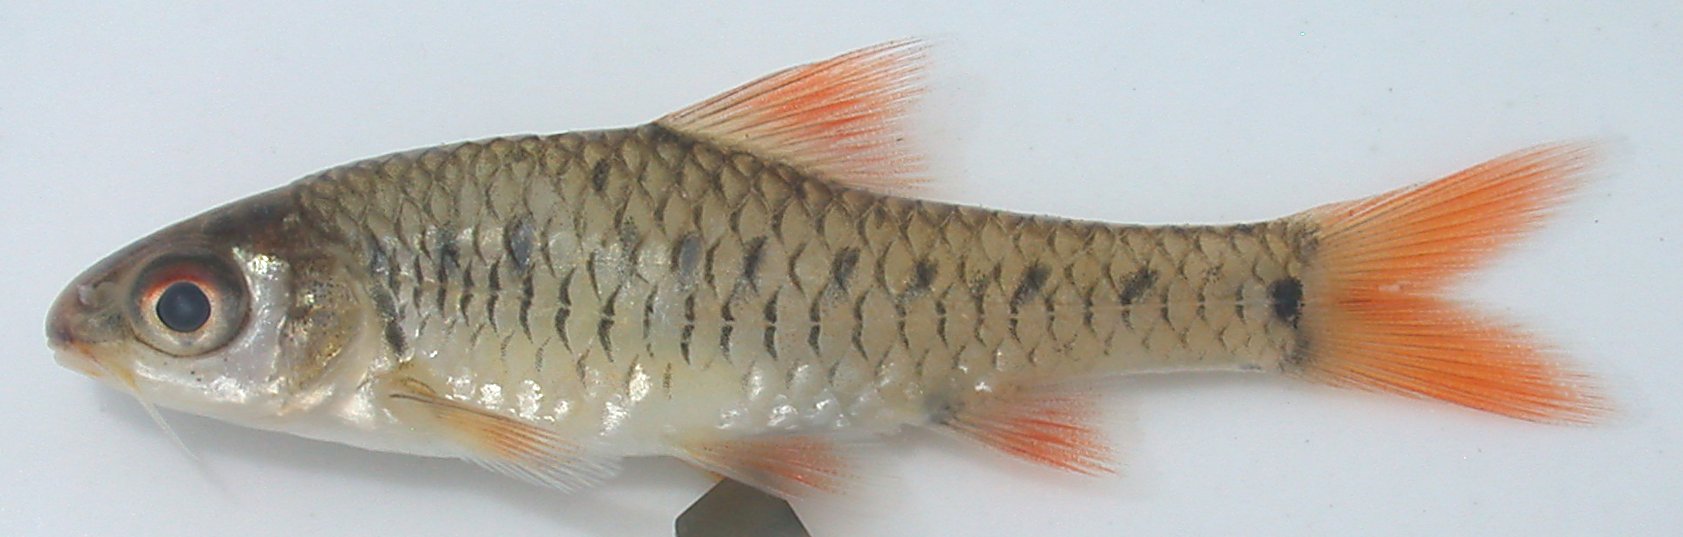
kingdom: Animalia
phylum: Chordata
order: Cypriniformes
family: Cyprinidae
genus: Clypeobarbus
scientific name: Clypeobarbus bellcrossi
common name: Gorgeous barb
